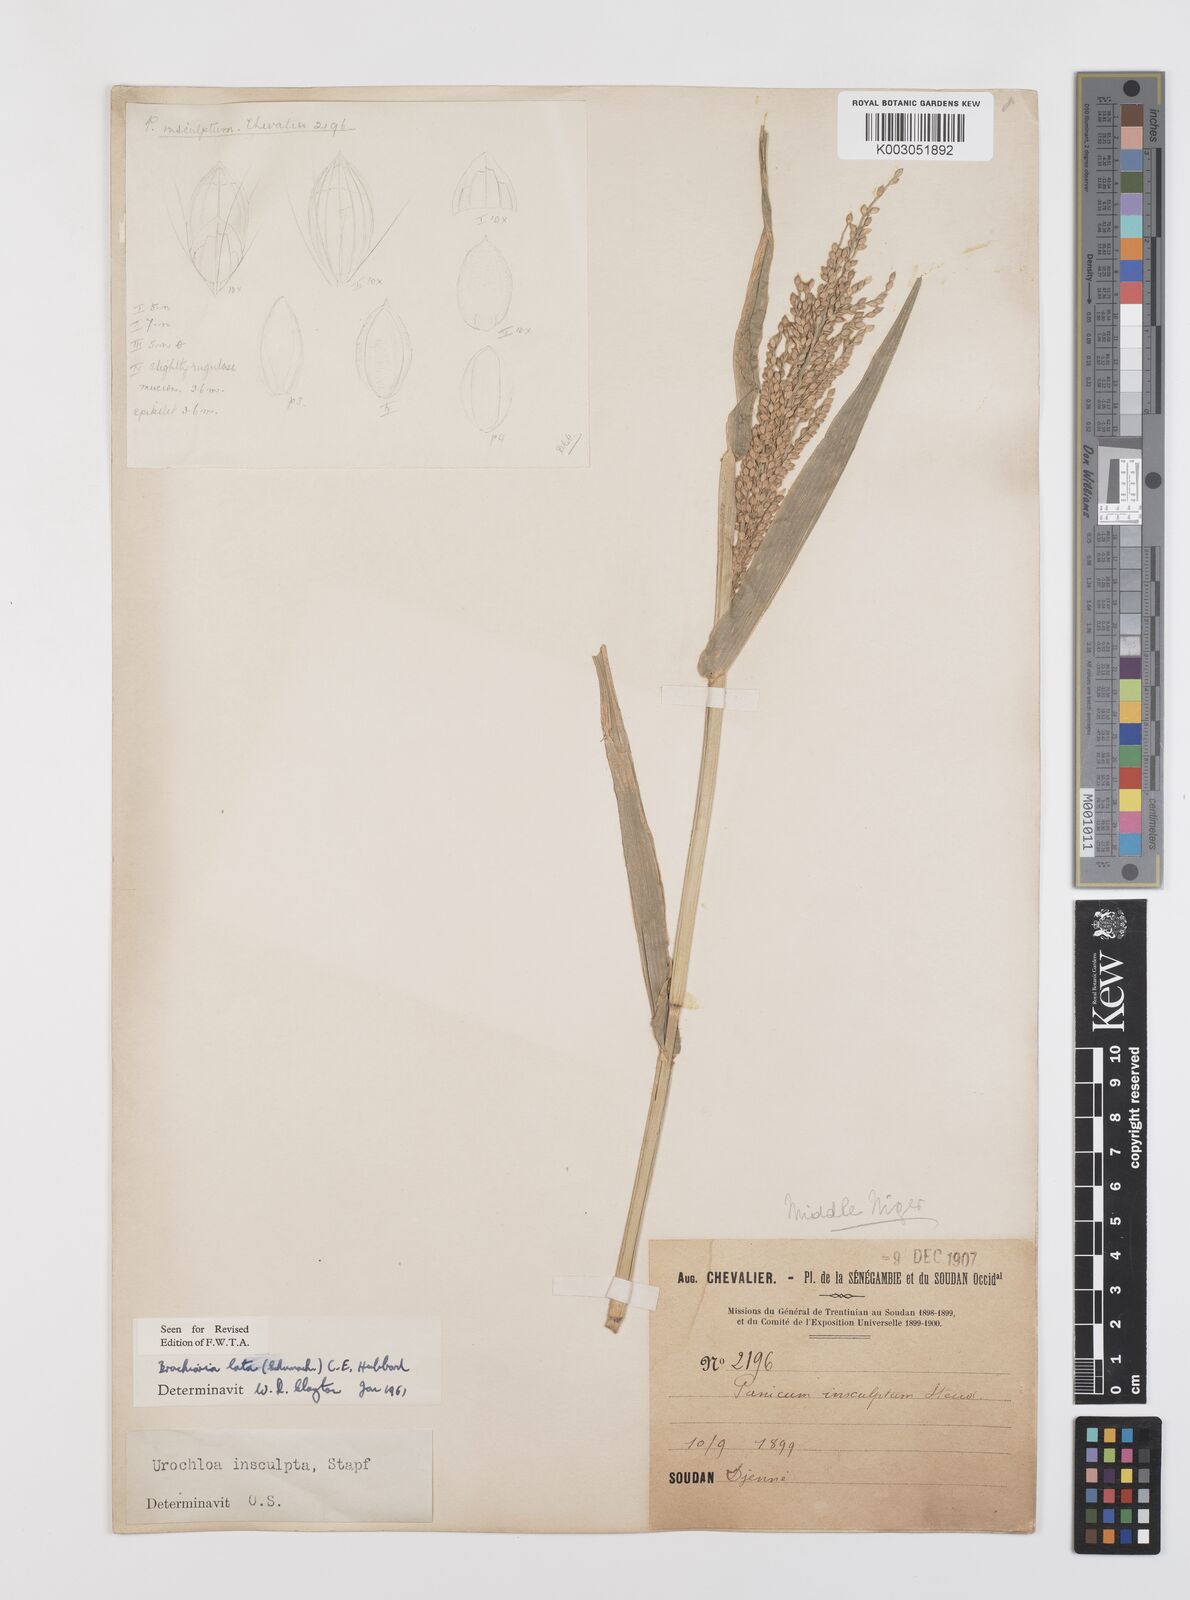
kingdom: Plantae
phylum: Tracheophyta
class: Liliopsida
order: Poales
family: Poaceae
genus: Urochloa
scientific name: Urochloa lata
